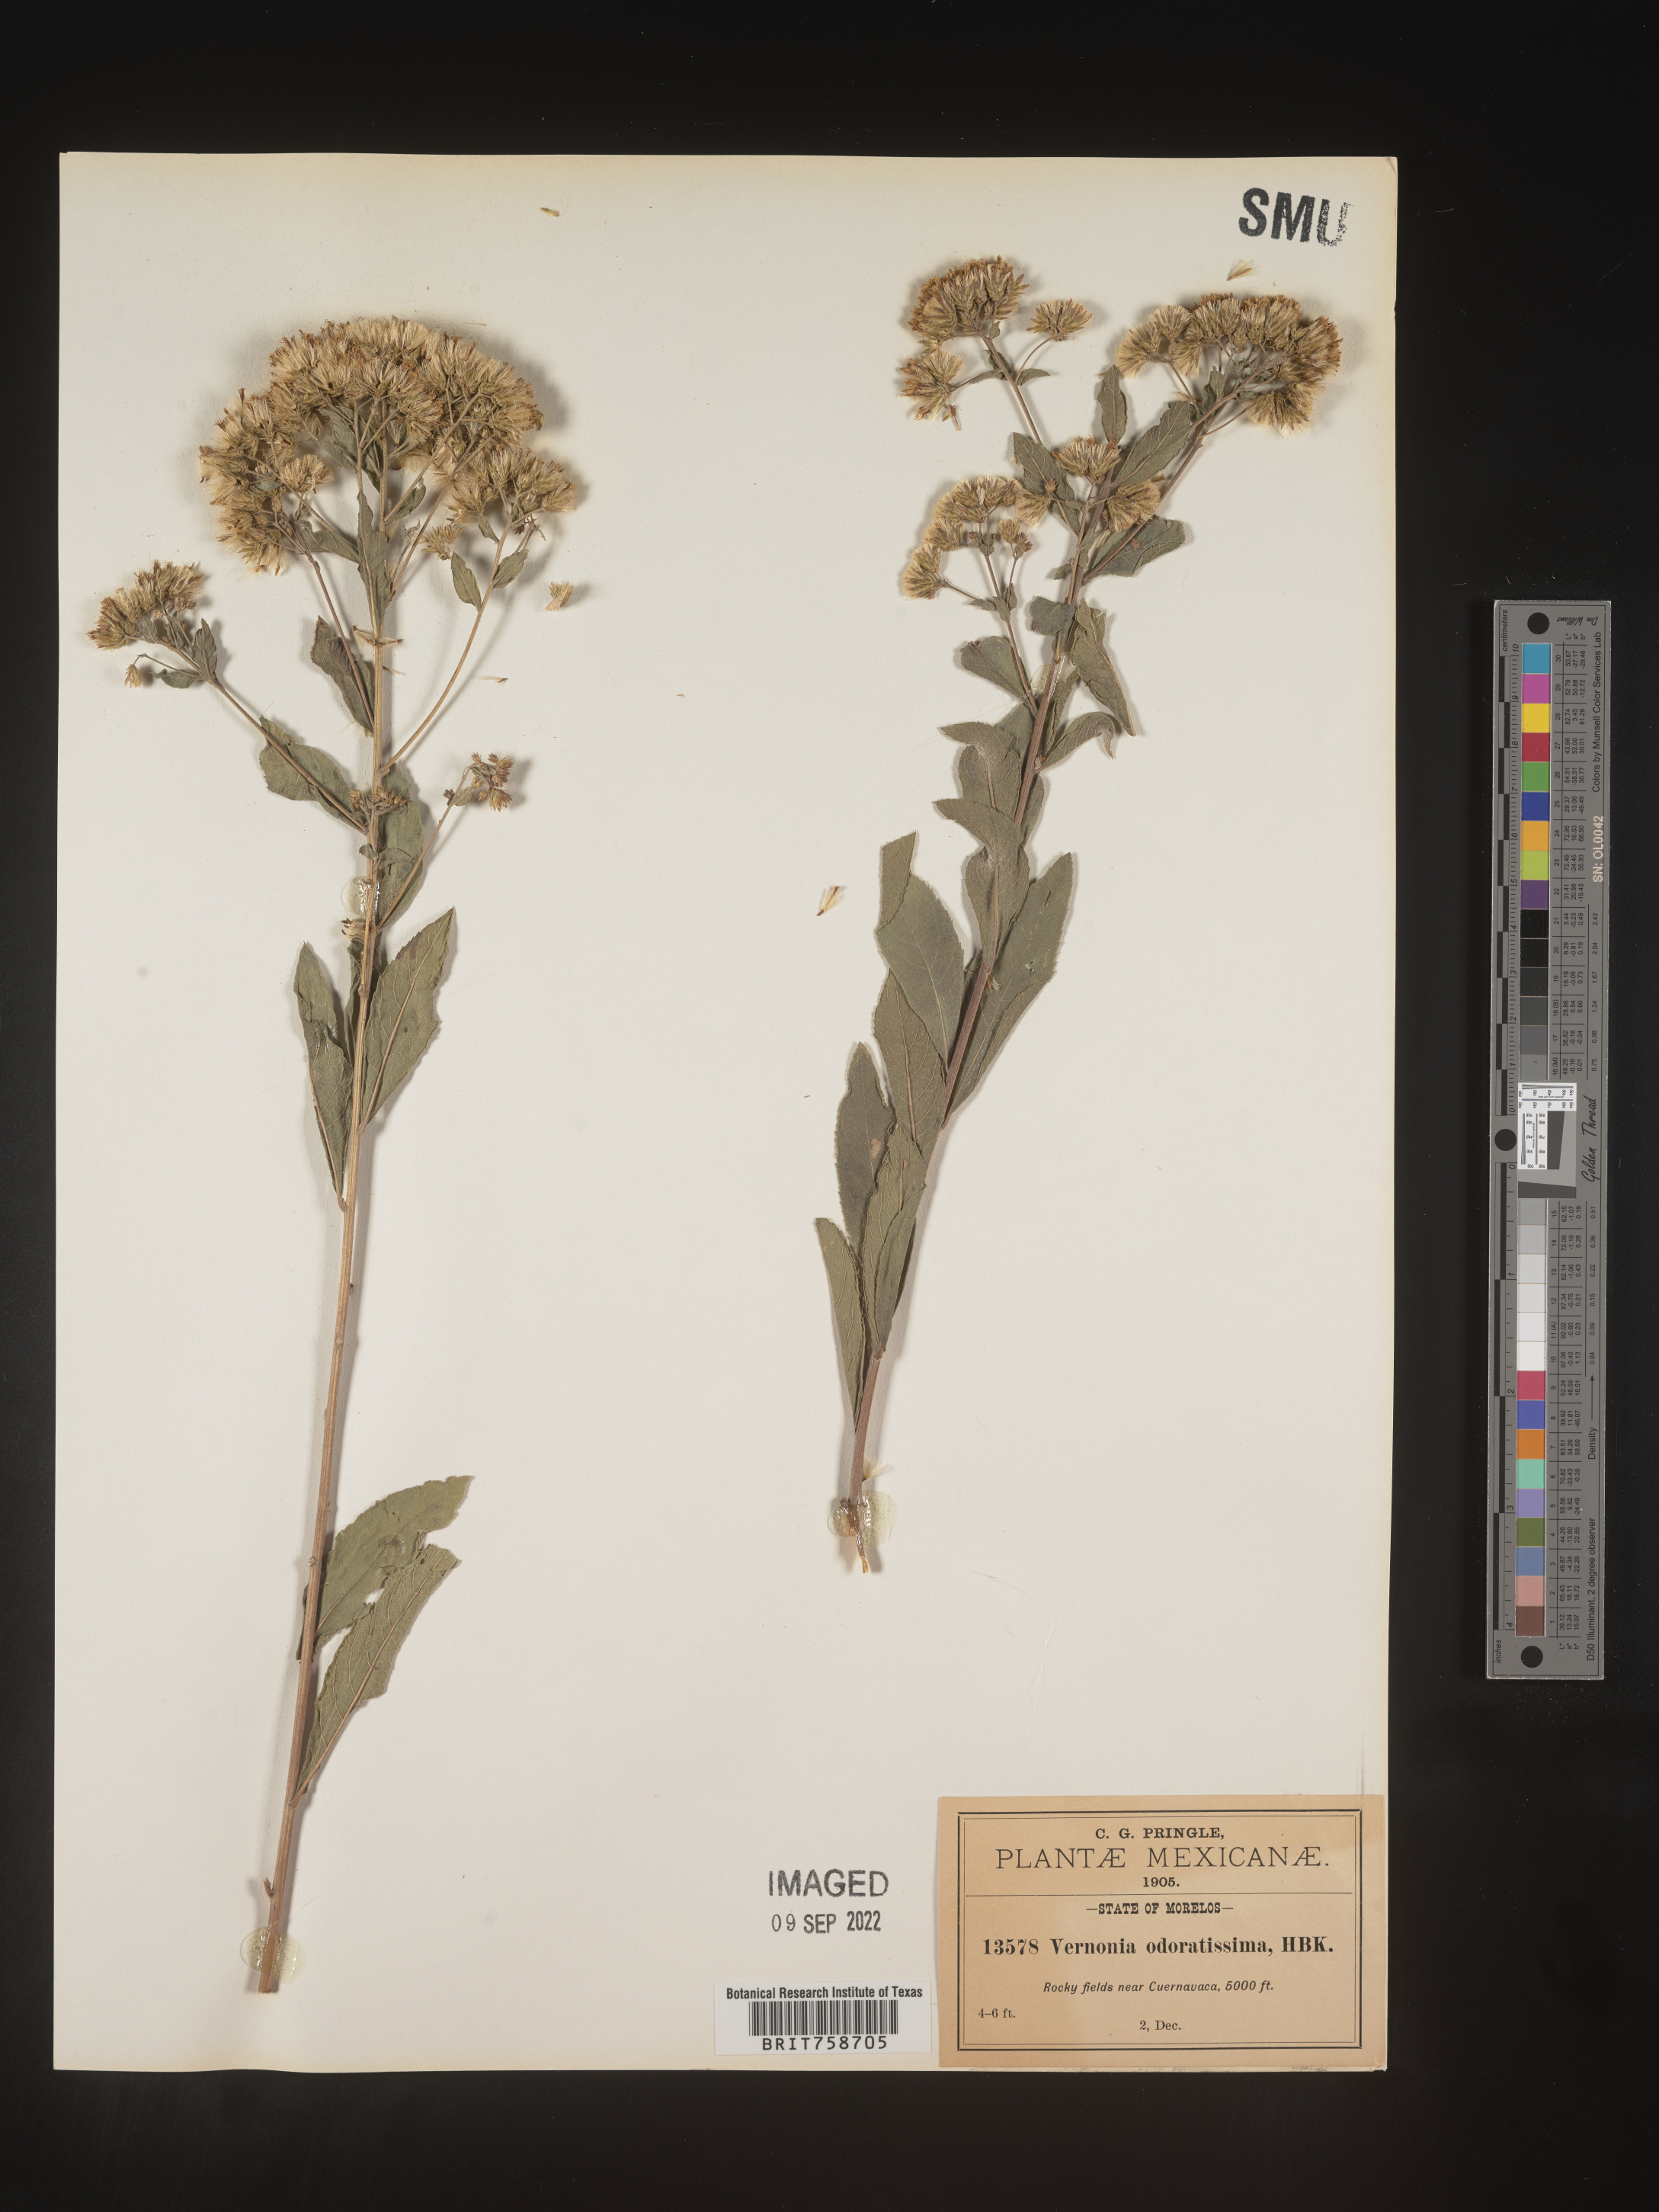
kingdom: Plantae
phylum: Tracheophyta
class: Magnoliopsida
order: Asterales
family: Asteraceae
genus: Vernonia
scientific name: Vernonia
